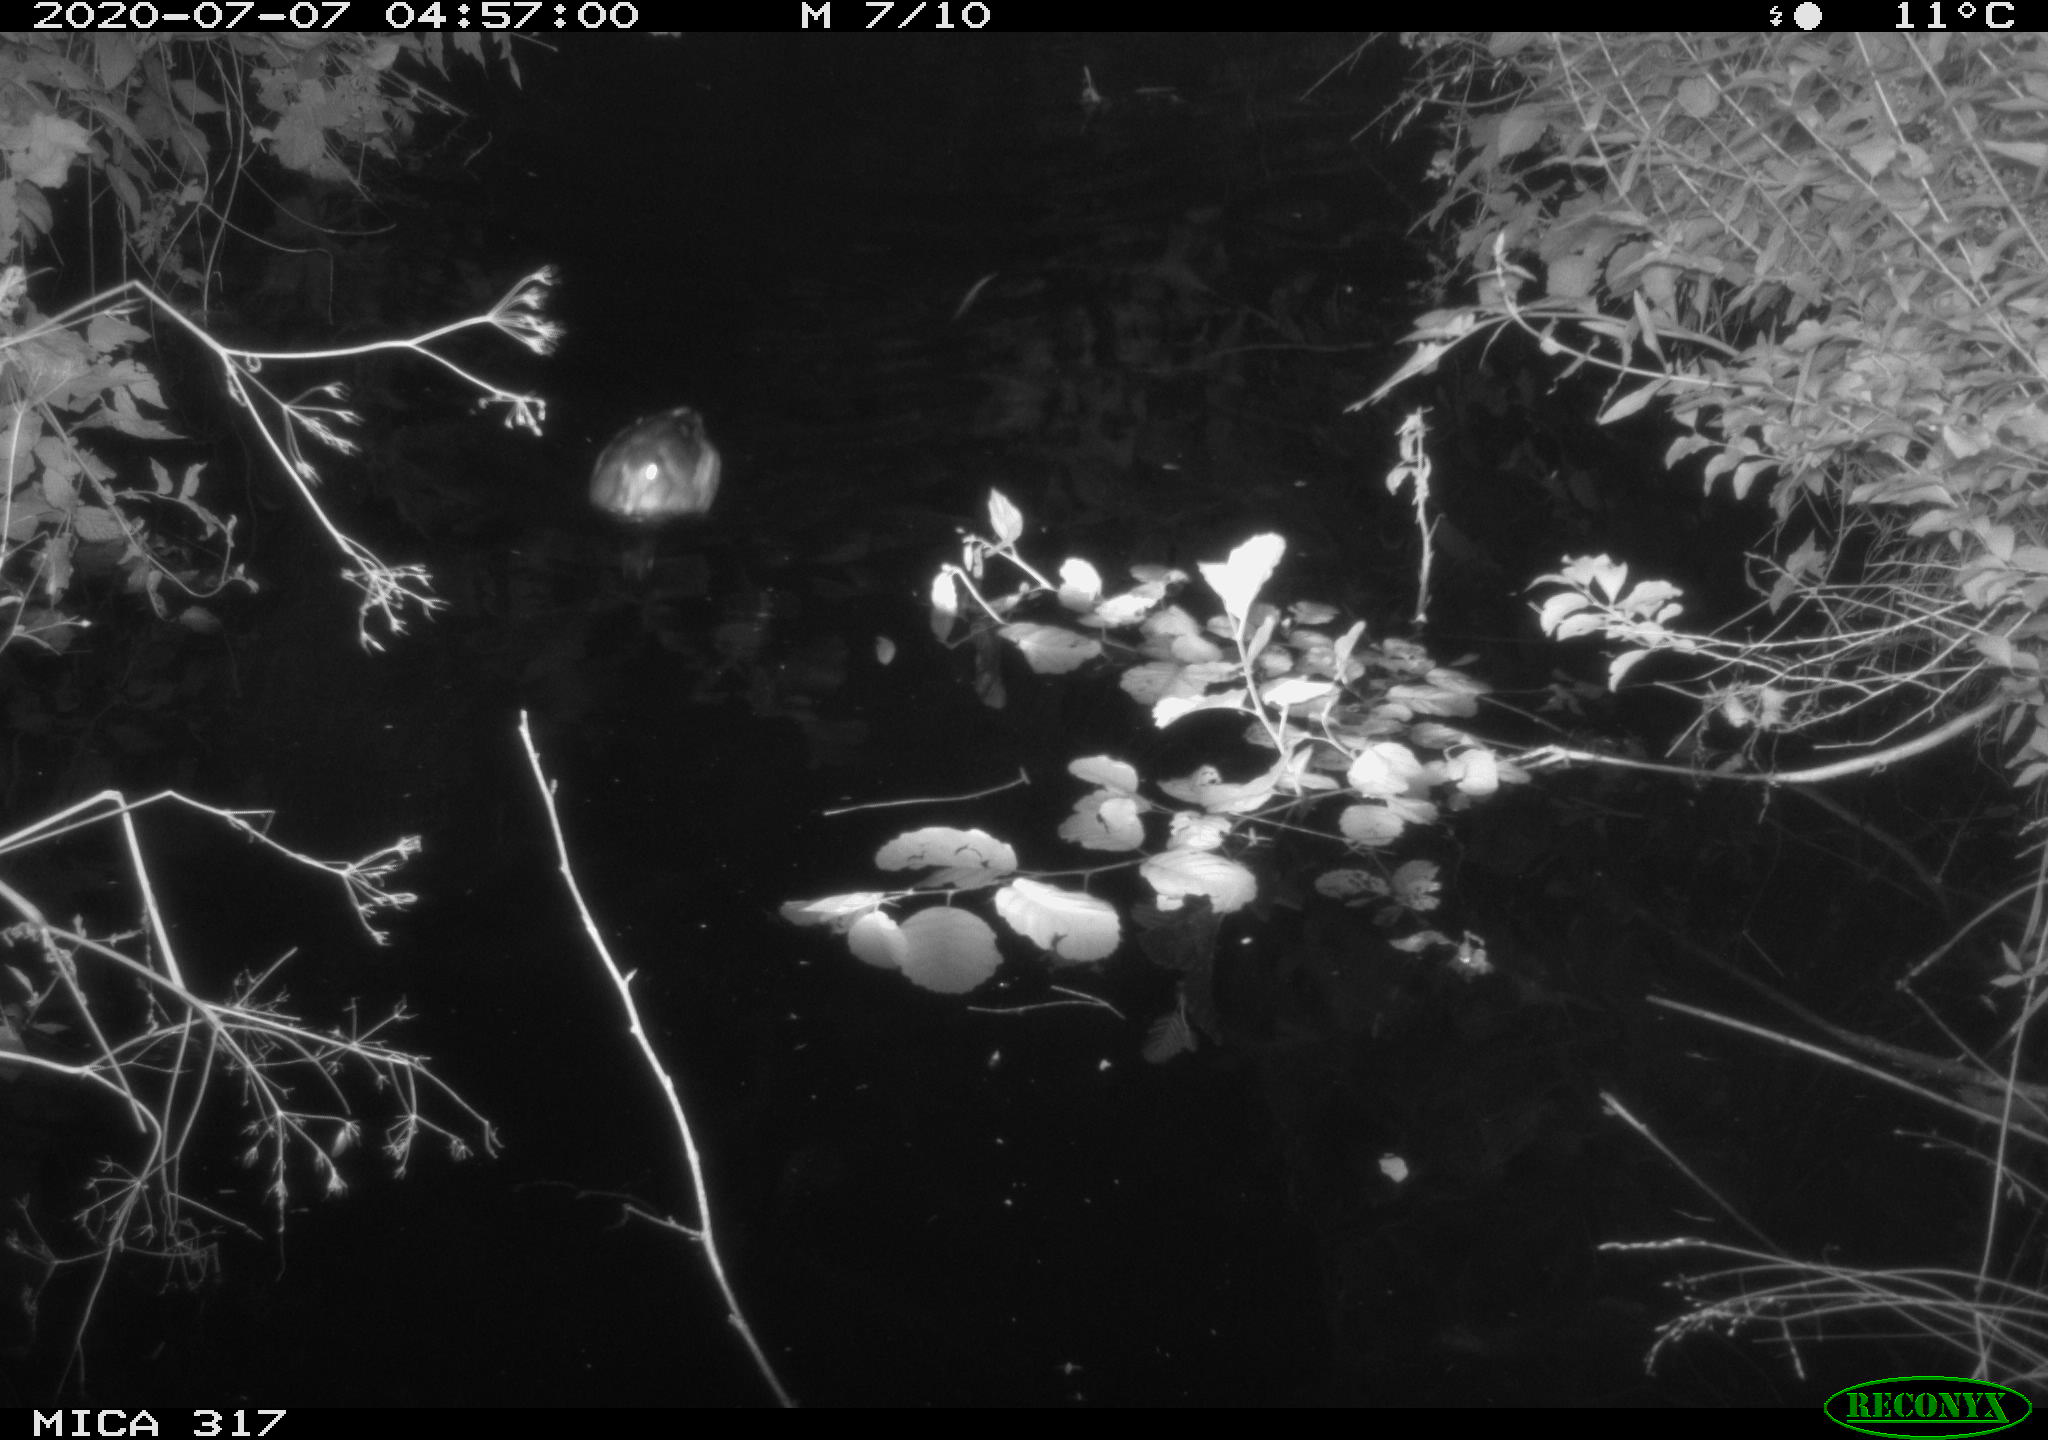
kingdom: Animalia
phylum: Chordata
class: Aves
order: Anseriformes
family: Anatidae
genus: Anas
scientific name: Anas platyrhynchos
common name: Mallard
